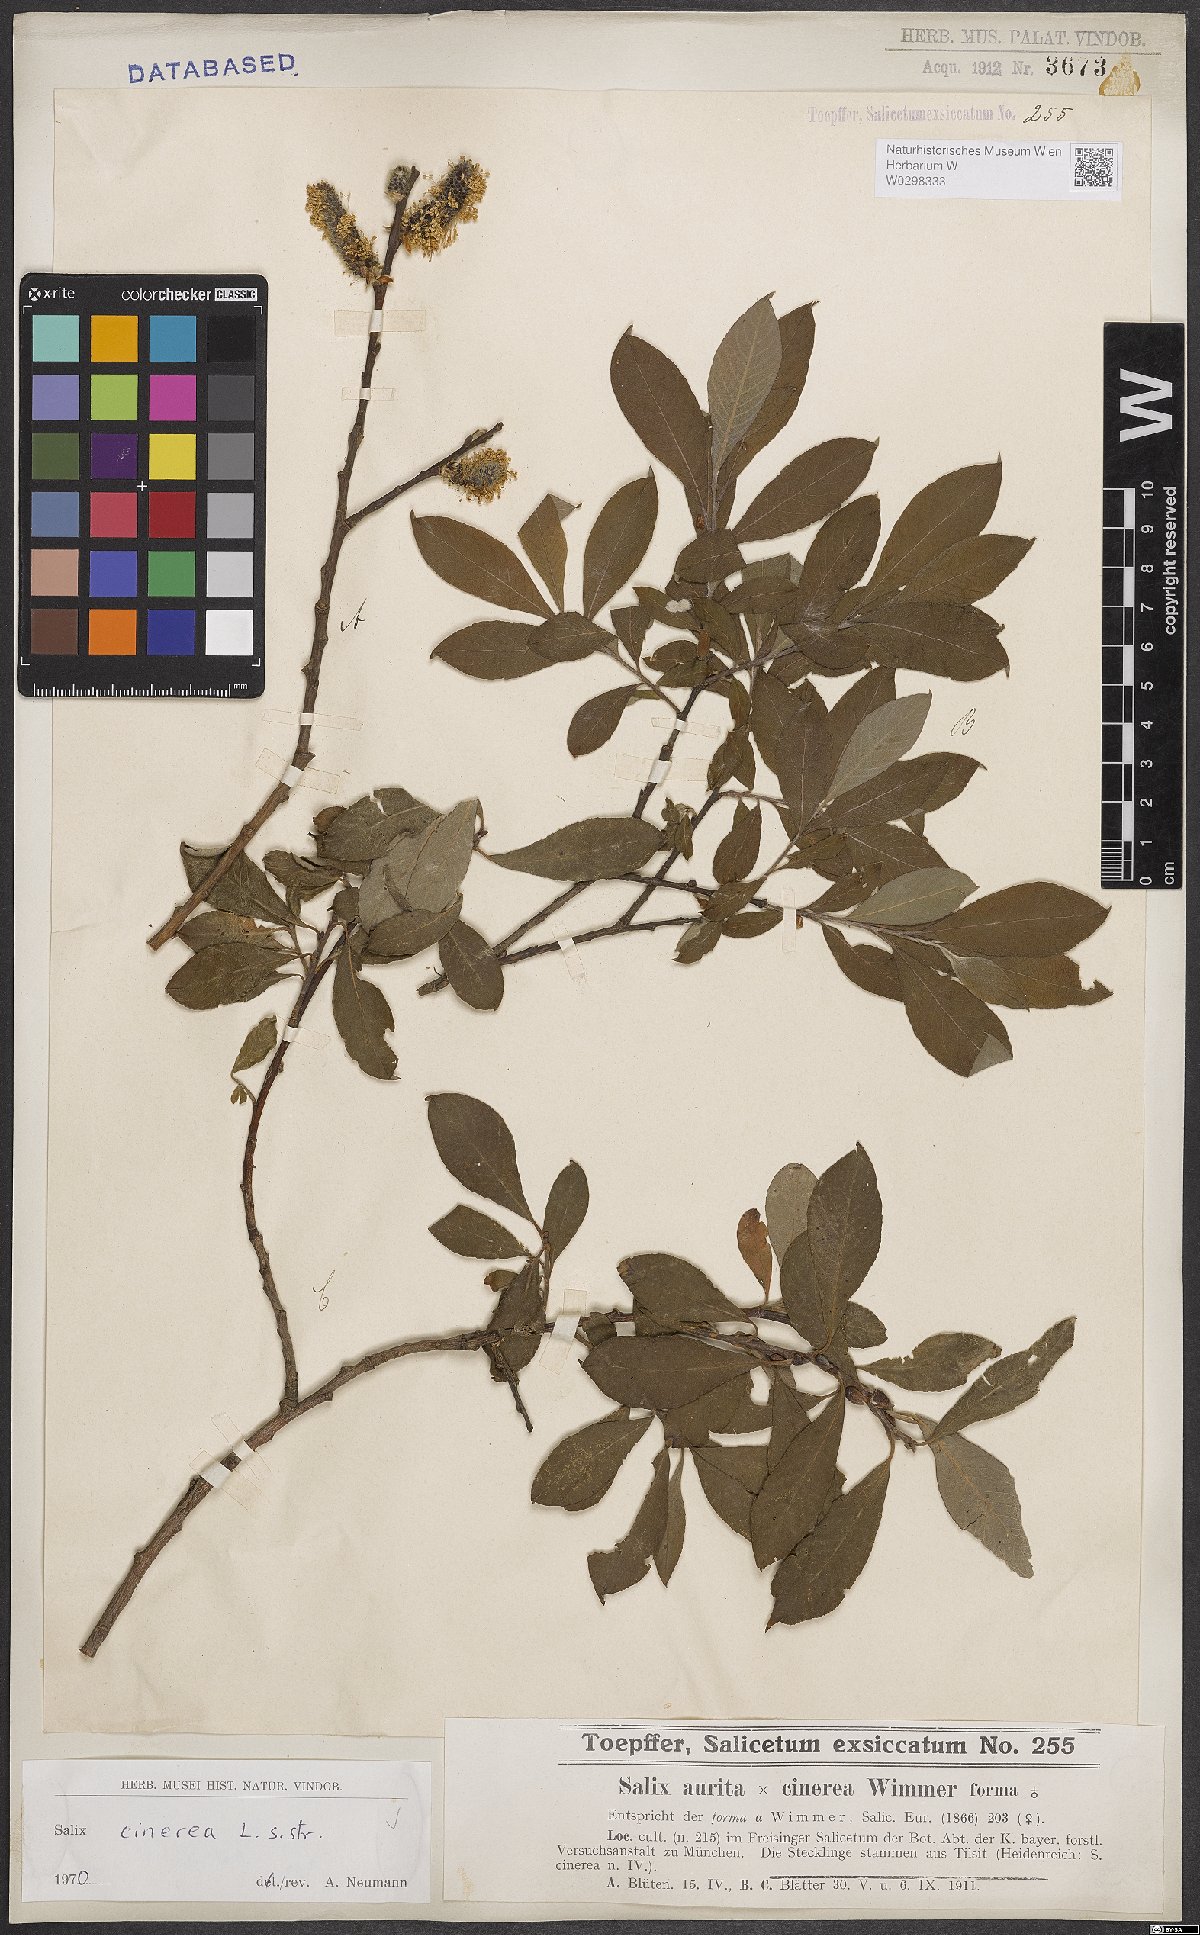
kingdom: Plantae
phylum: Tracheophyta
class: Magnoliopsida
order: Malpighiales
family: Salicaceae
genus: Salix
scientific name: Salix cinerea
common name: Common sallow
